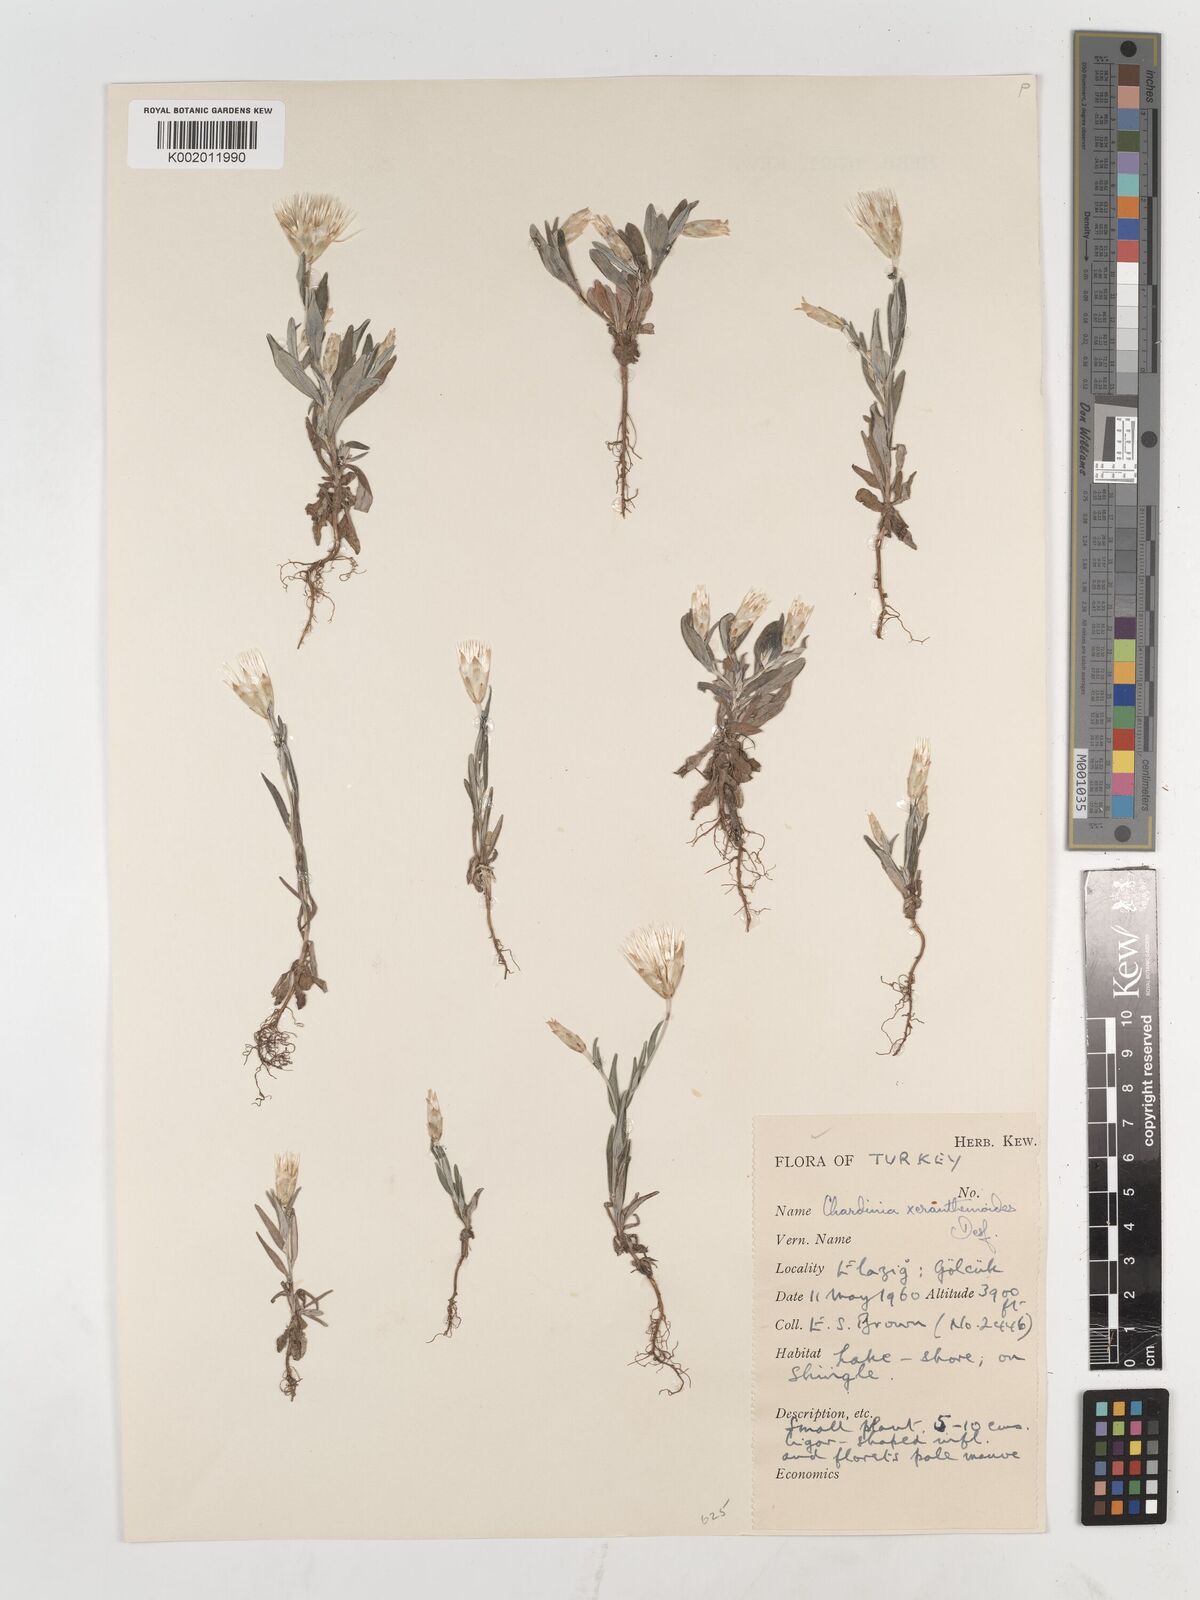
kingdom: Plantae
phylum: Tracheophyta
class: Magnoliopsida
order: Asterales
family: Asteraceae
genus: Chardinia
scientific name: Chardinia orientalis
